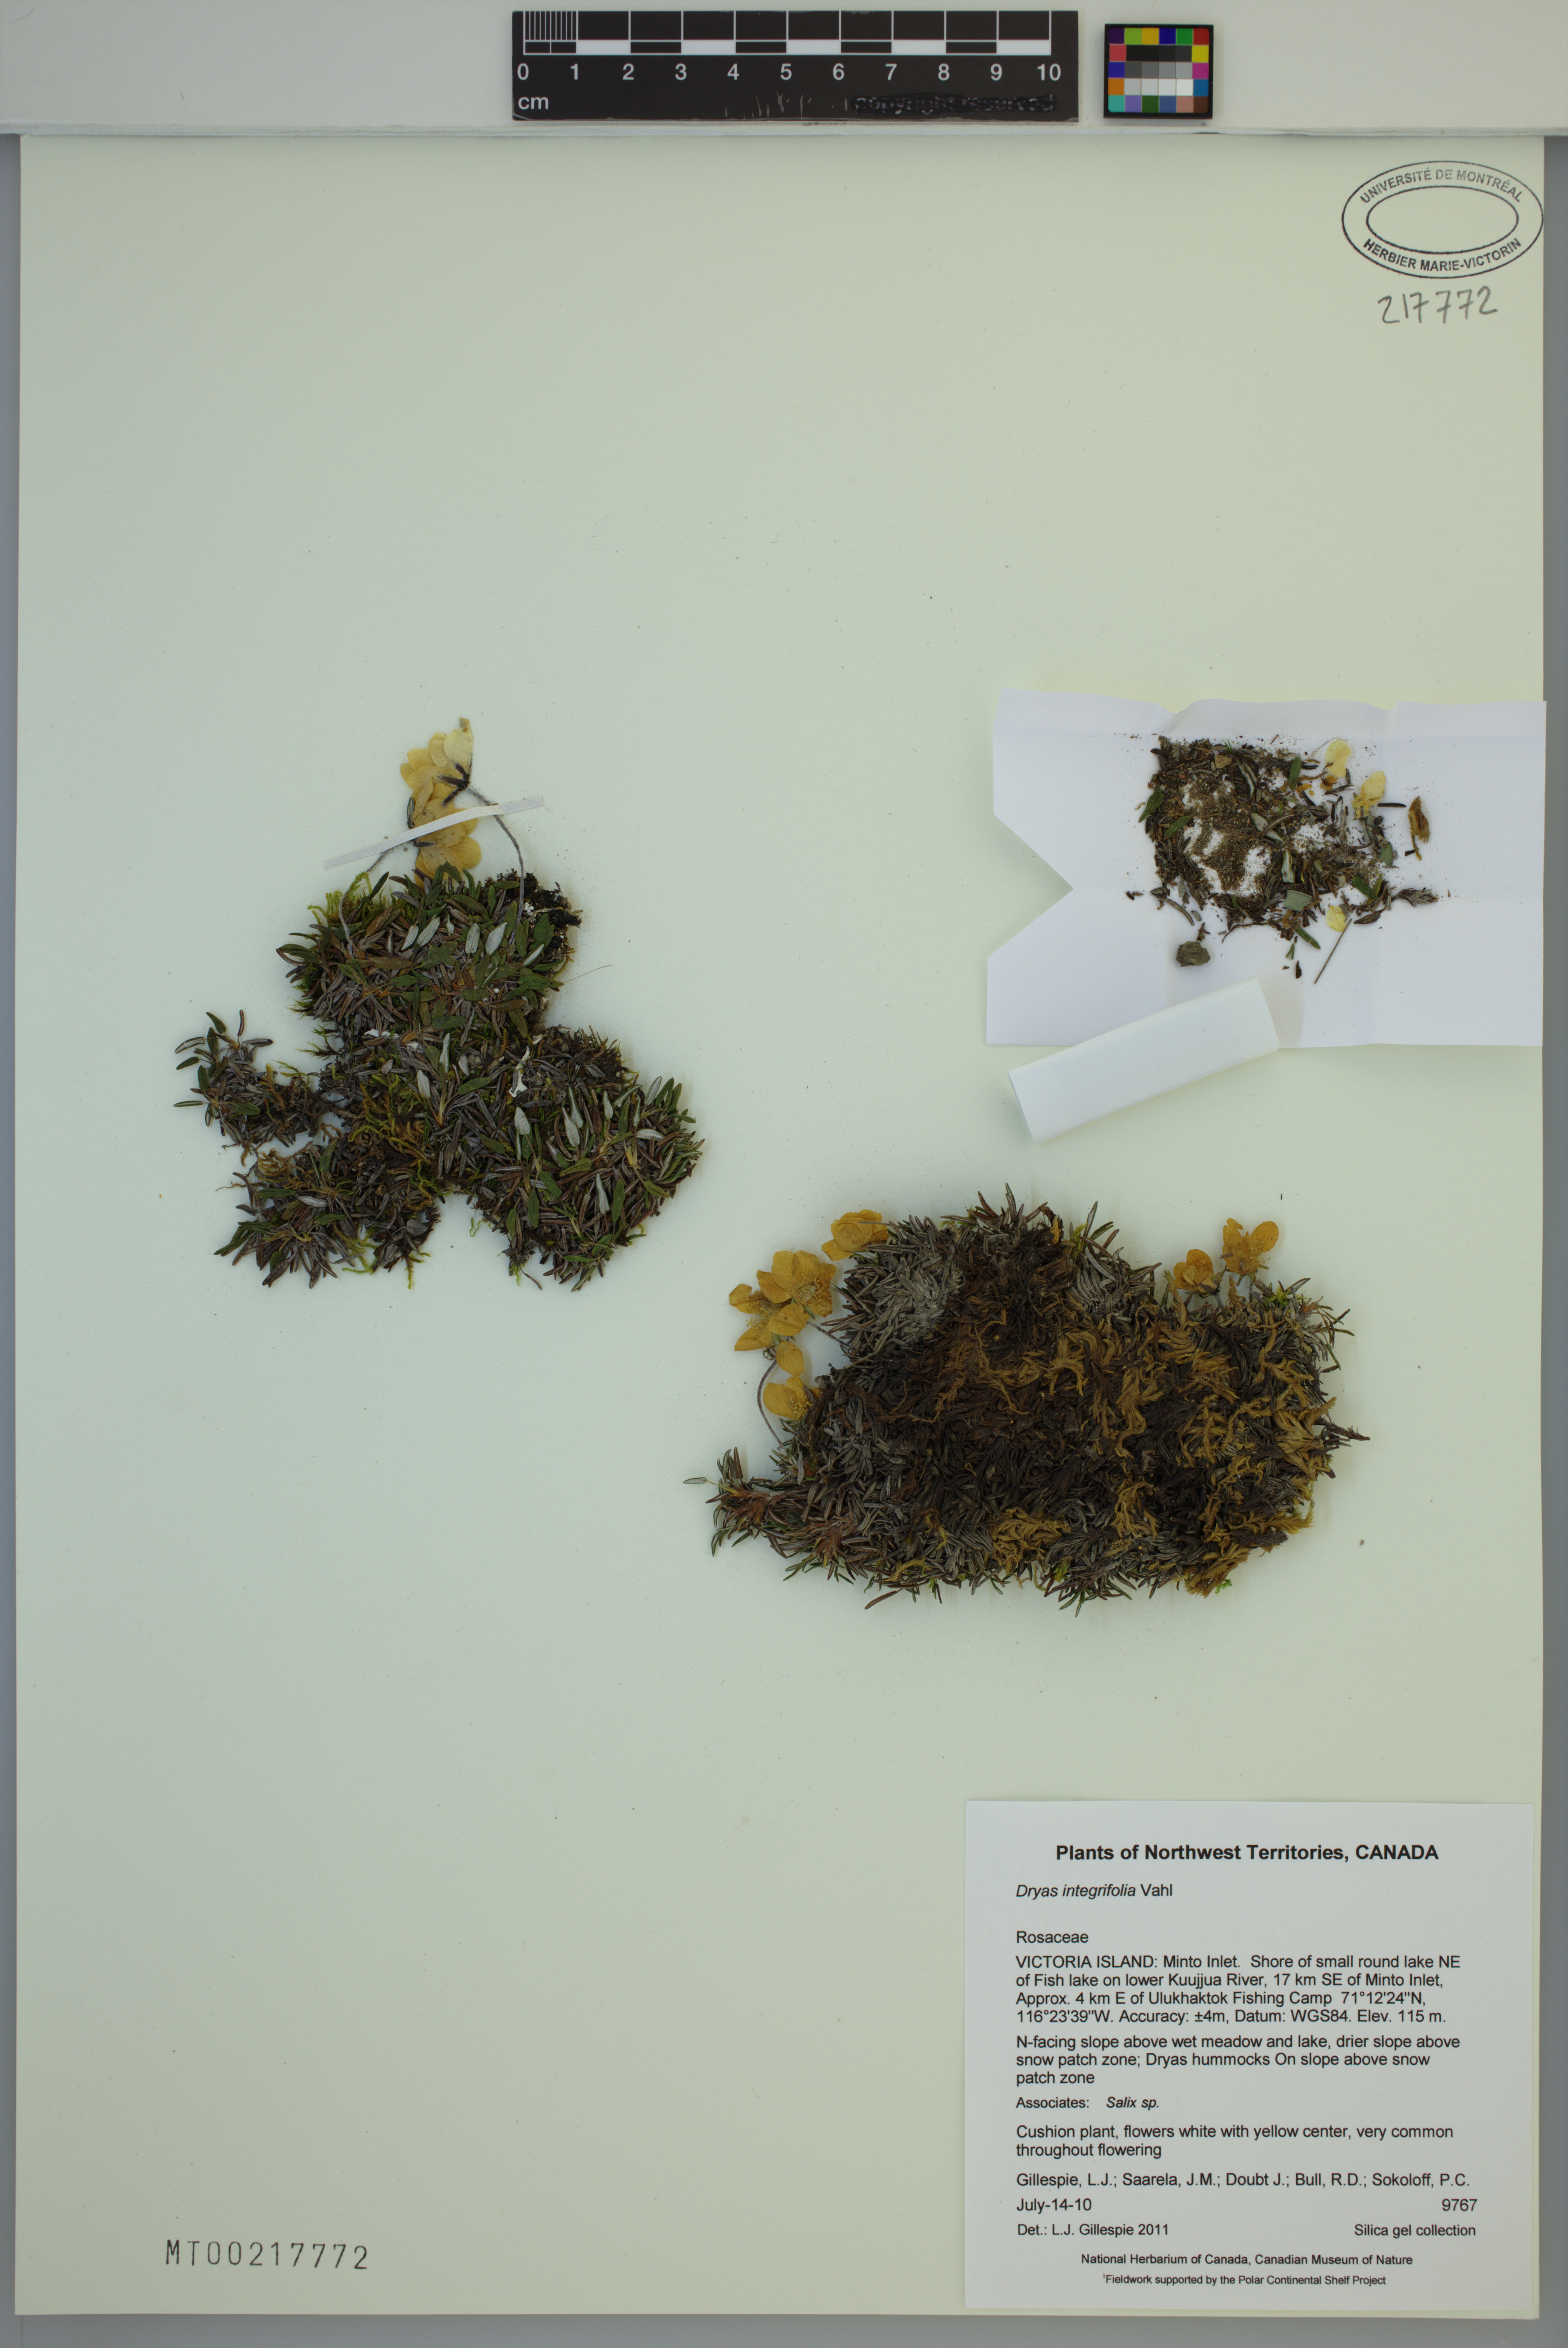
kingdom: Plantae
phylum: Tracheophyta
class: Magnoliopsida
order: Rosales
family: Rosaceae
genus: Dryas
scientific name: Dryas integrifolia
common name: Entire-leaved mountain avens
